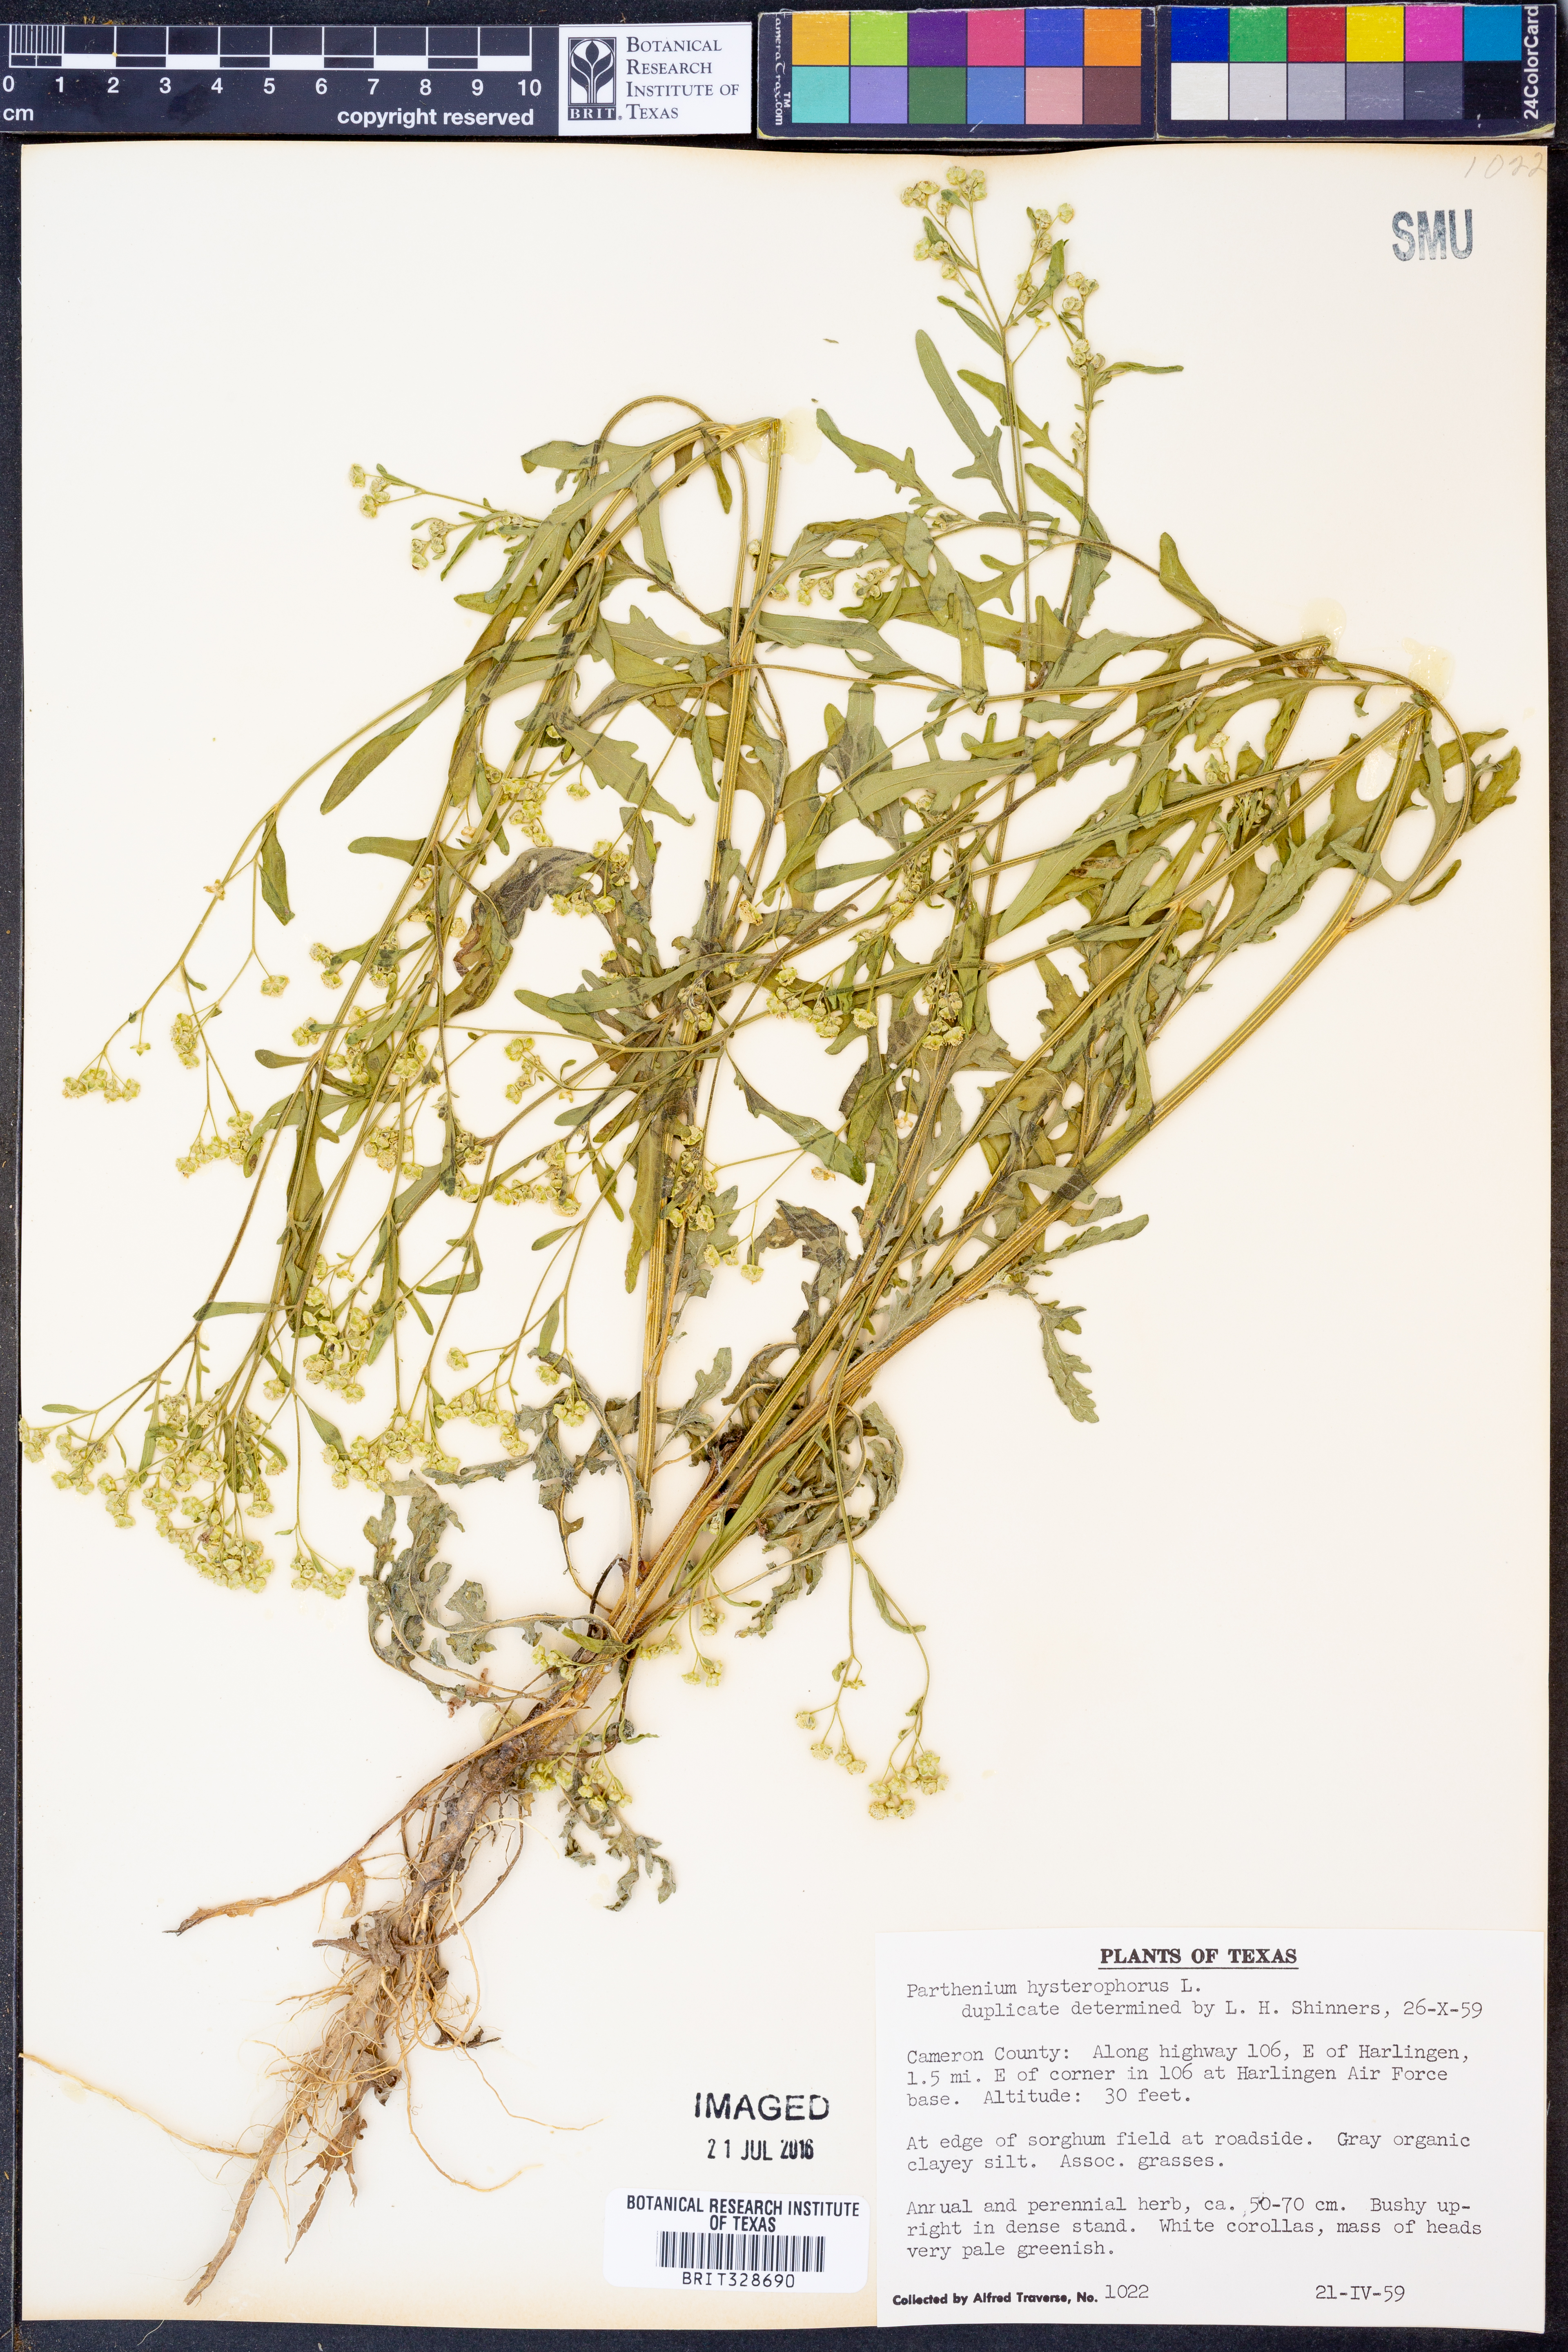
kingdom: Plantae
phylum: Tracheophyta
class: Magnoliopsida
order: Asterales
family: Asteraceae
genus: Parthenium
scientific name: Parthenium hysterophorus
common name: Santa maria feverfew
